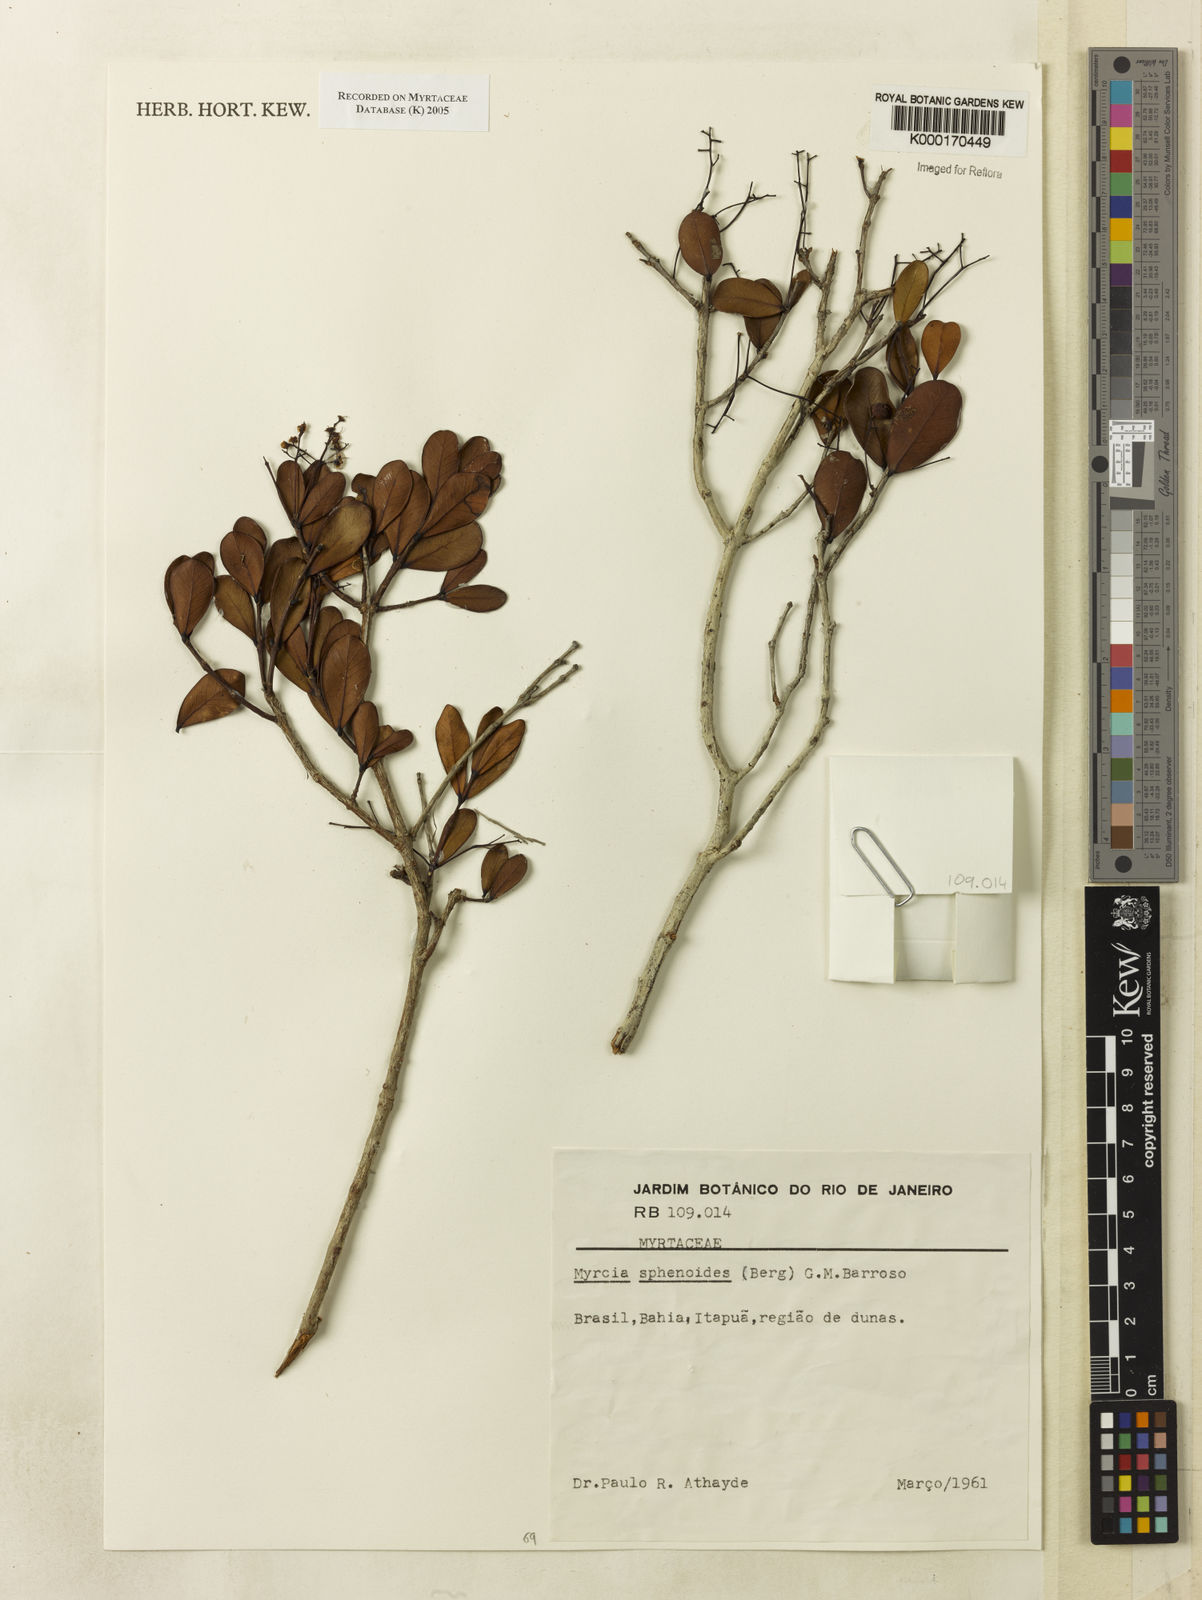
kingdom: Plantae
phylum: Tracheophyta
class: Magnoliopsida
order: Myrtales
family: Myrtaceae
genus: Myrcia
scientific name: Myrcia
